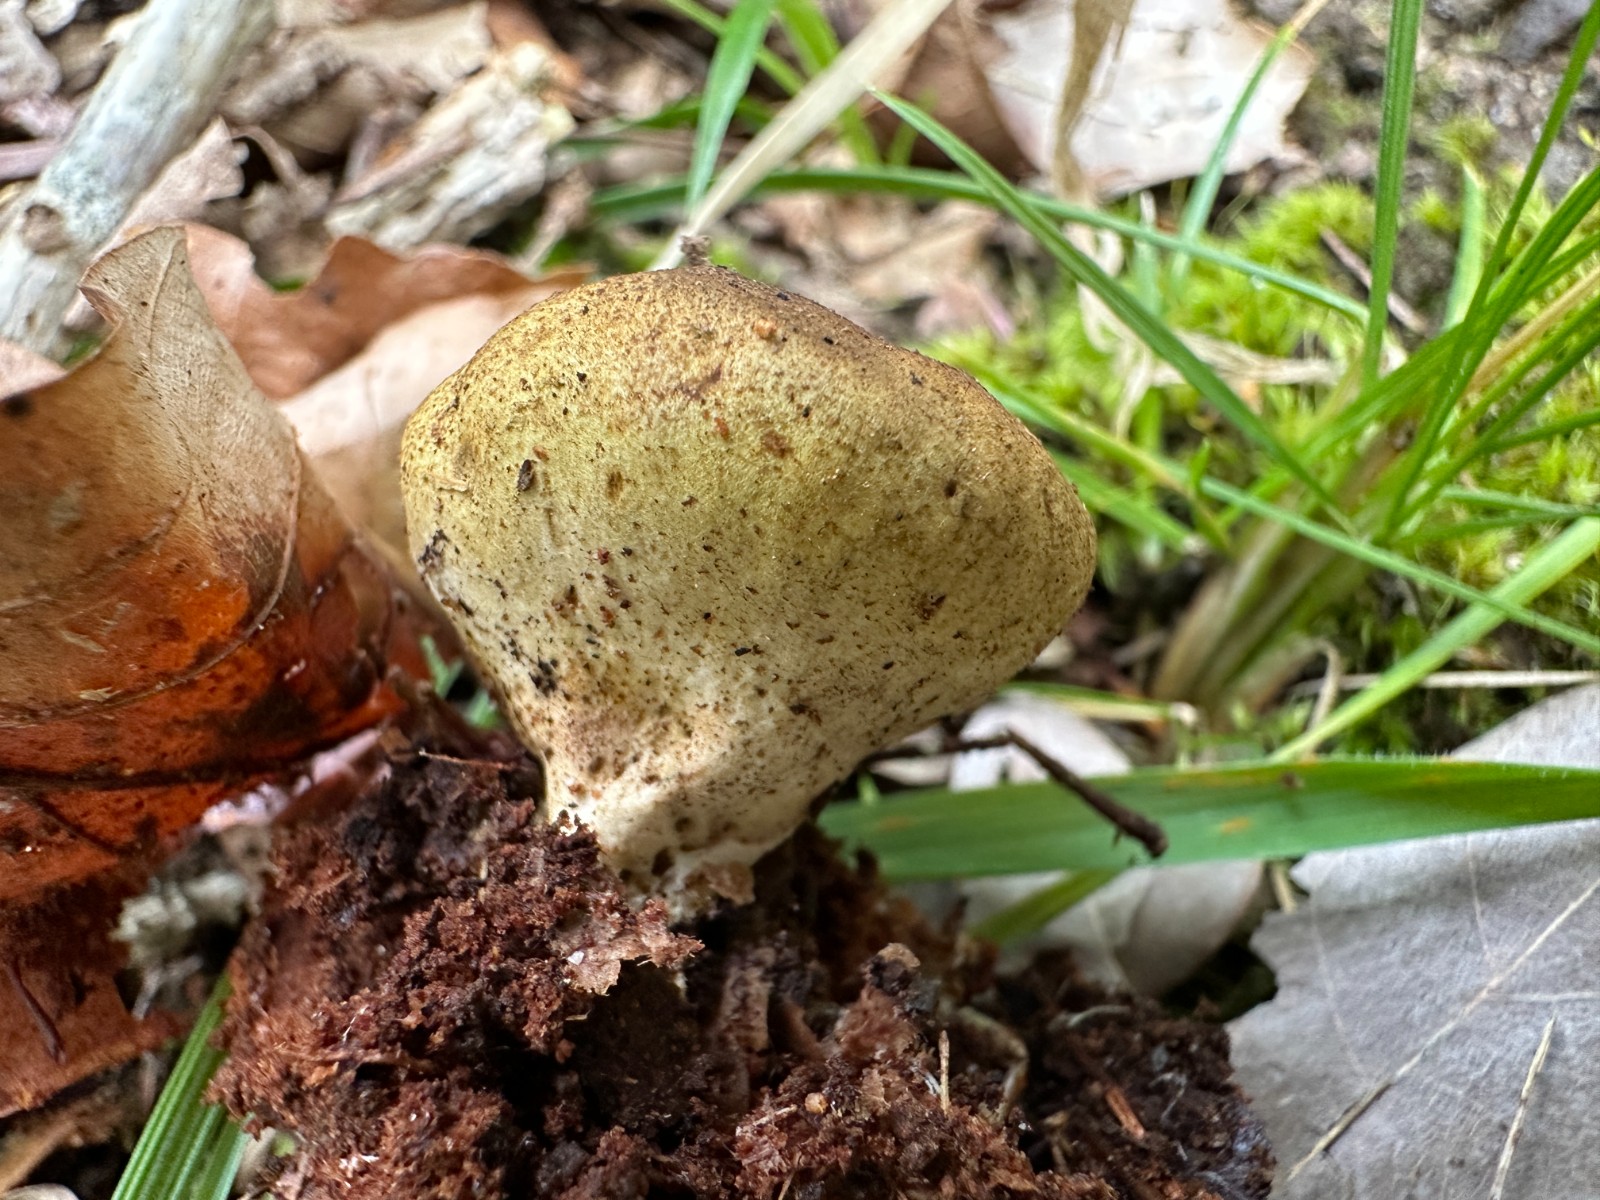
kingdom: Fungi
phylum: Basidiomycota
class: Agaricomycetes
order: Boletales
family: Sclerodermataceae
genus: Scleroderma
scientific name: Scleroderma areolatum
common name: plettet bruskbold
